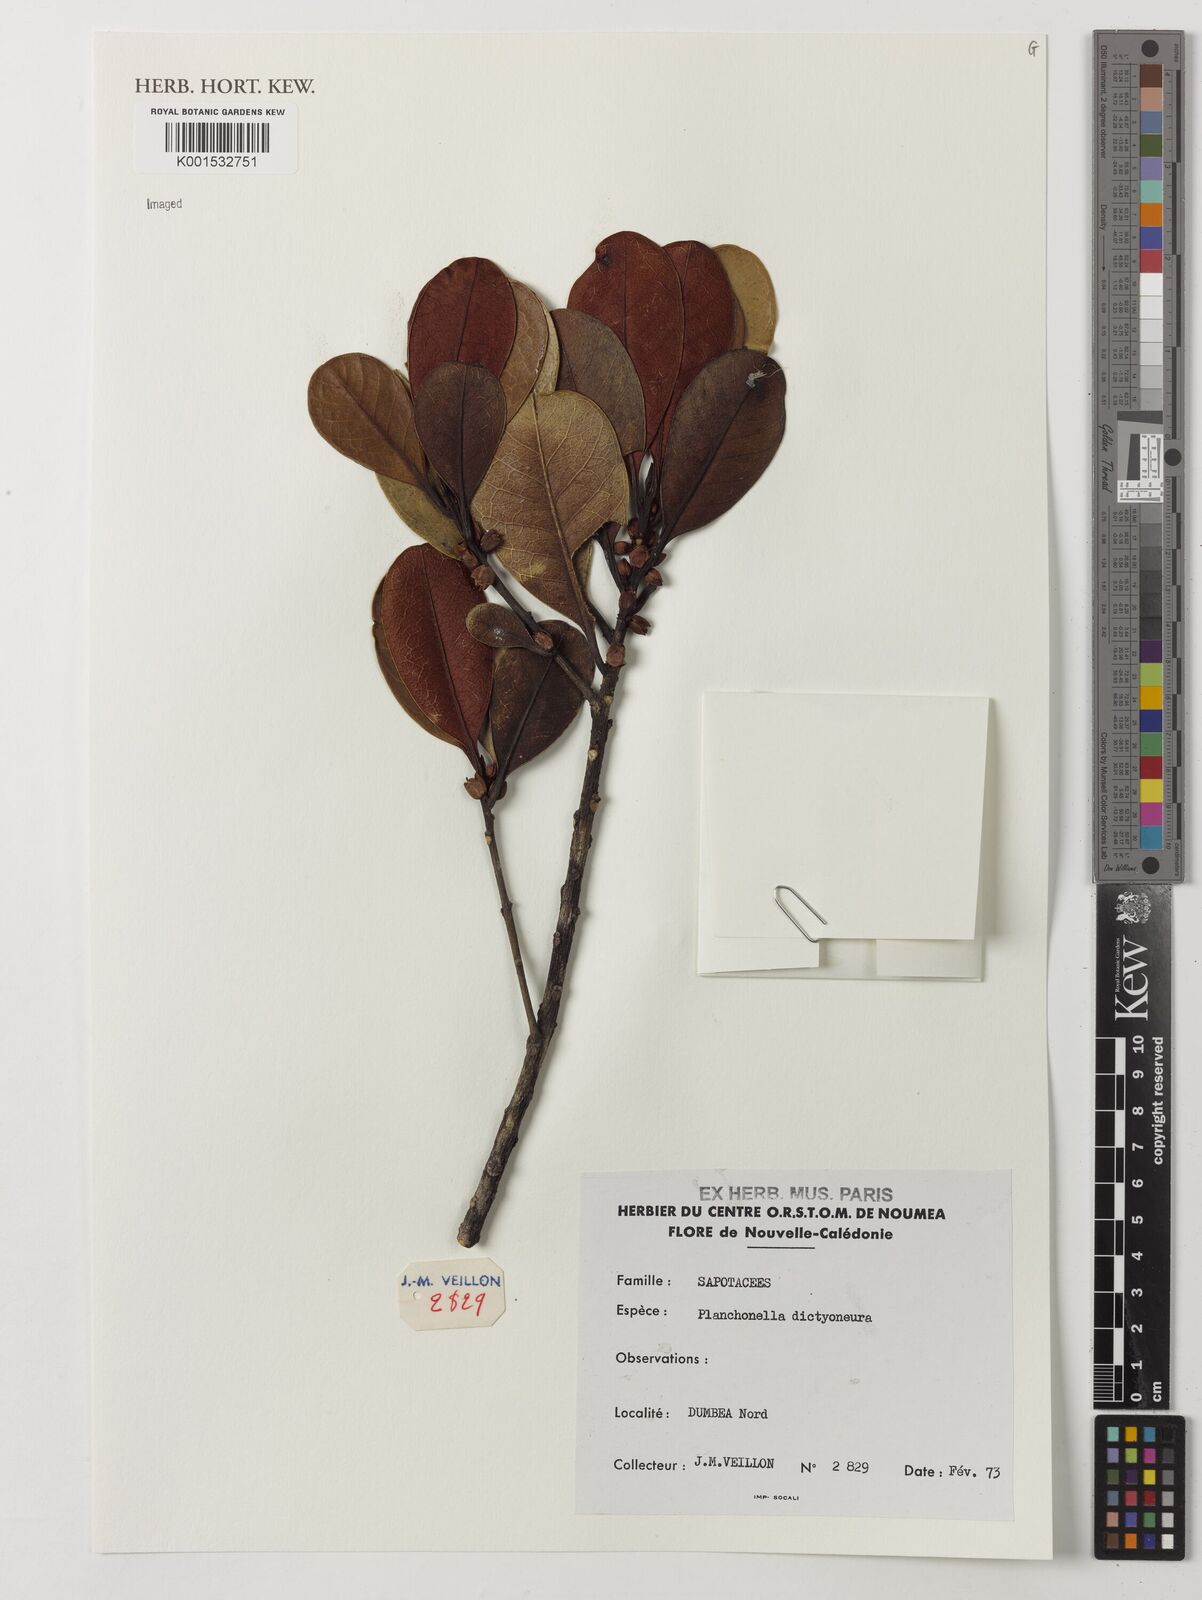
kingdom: Plantae
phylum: Tracheophyta
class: Magnoliopsida
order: Ericales
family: Sapotaceae
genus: Planchonella
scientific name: Planchonella lauracea
